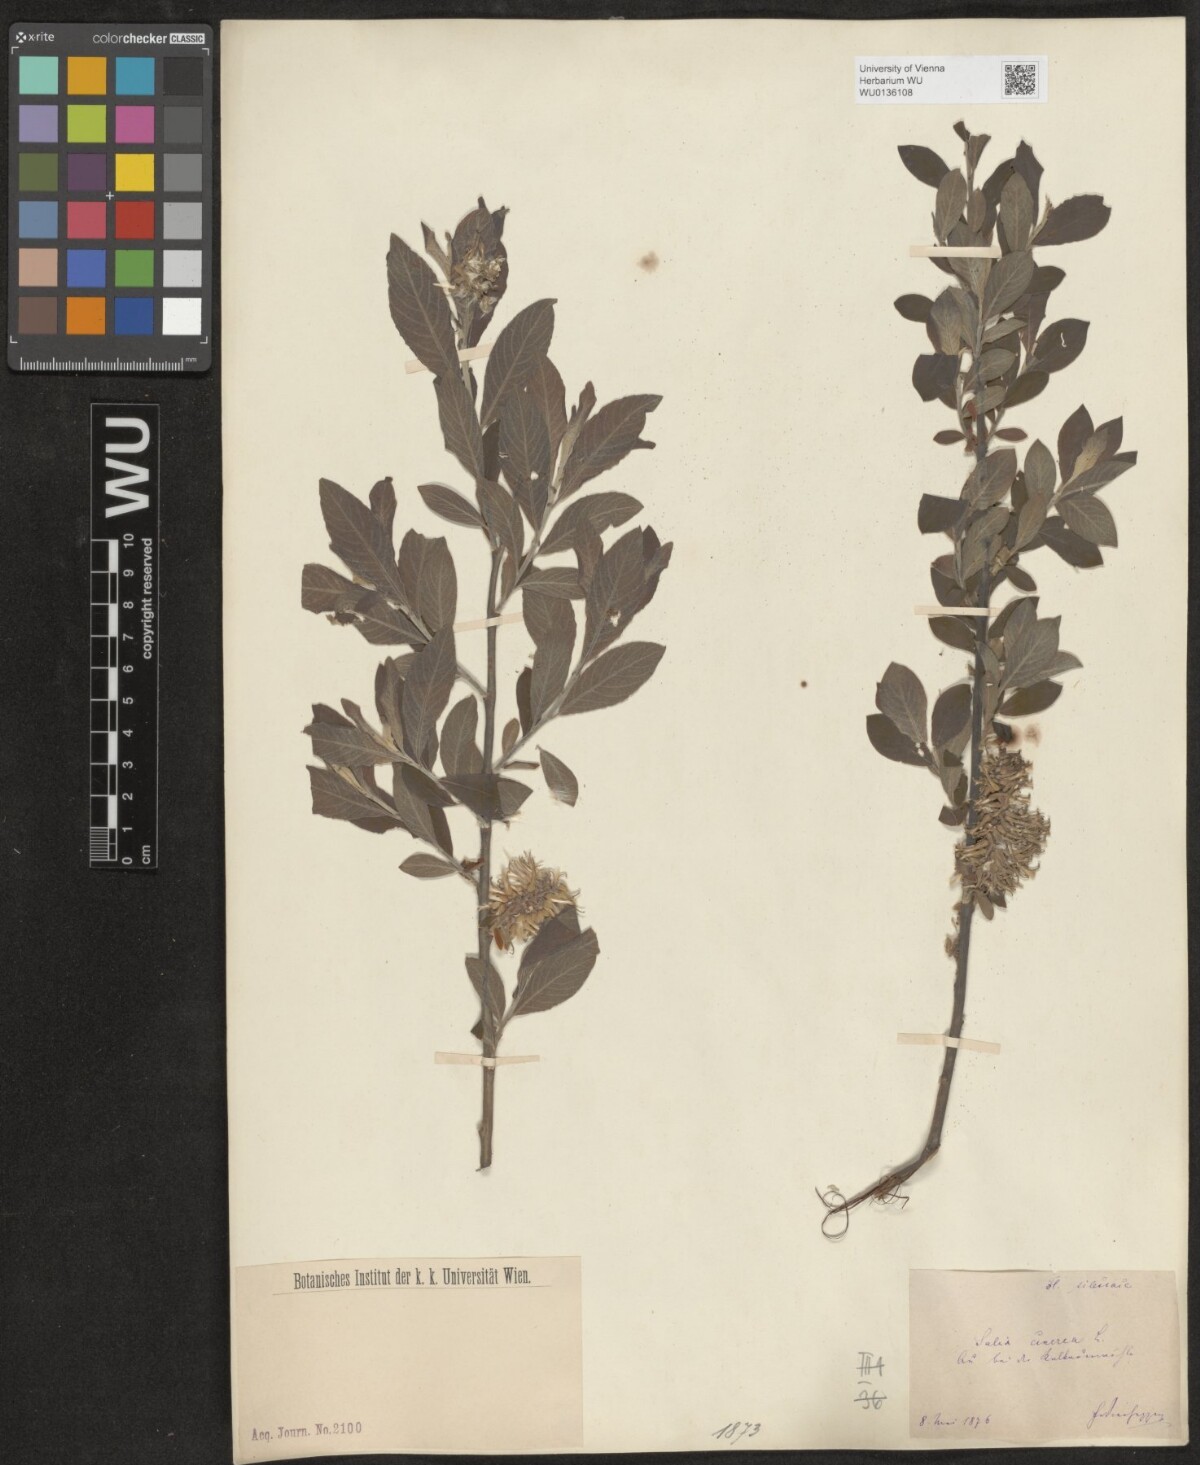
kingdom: Plantae
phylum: Tracheophyta
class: Magnoliopsida
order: Malpighiales
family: Salicaceae
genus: Salix
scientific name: Salix cinerea
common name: Common sallow
